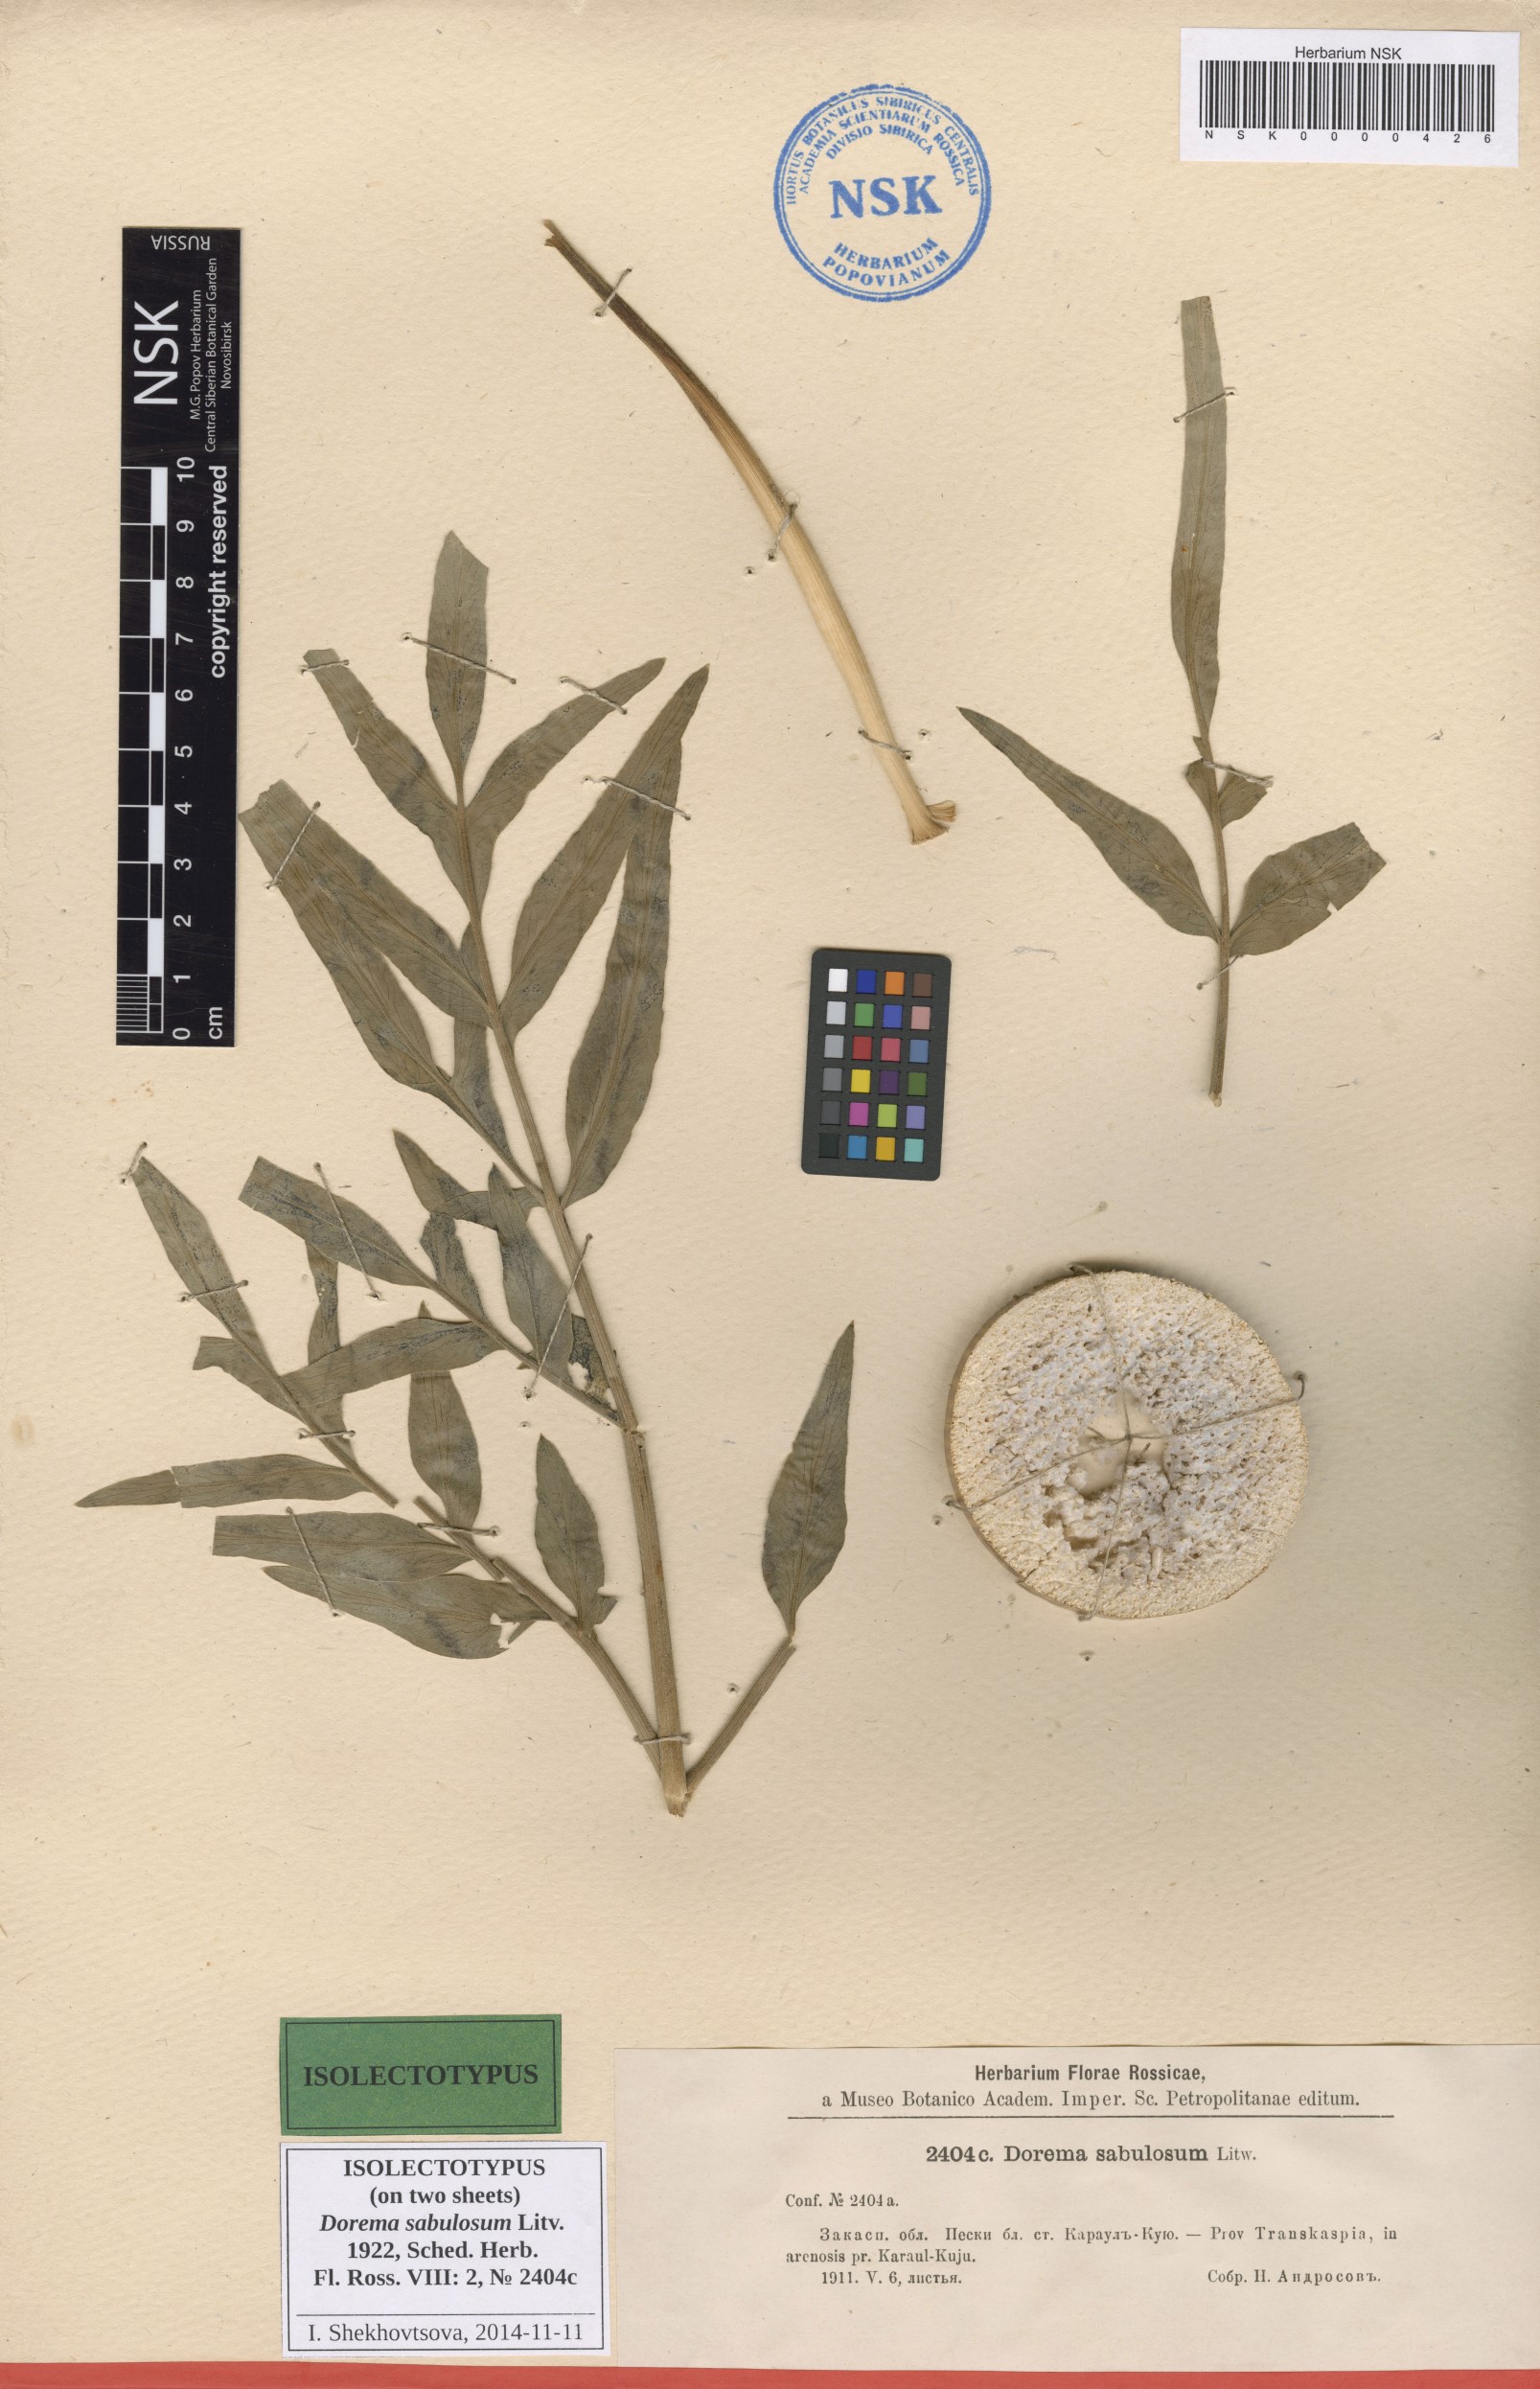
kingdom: Plantae
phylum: Tracheophyta
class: Magnoliopsida
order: Apiales
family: Apiaceae
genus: Ferula
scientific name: Ferula sabulosum
